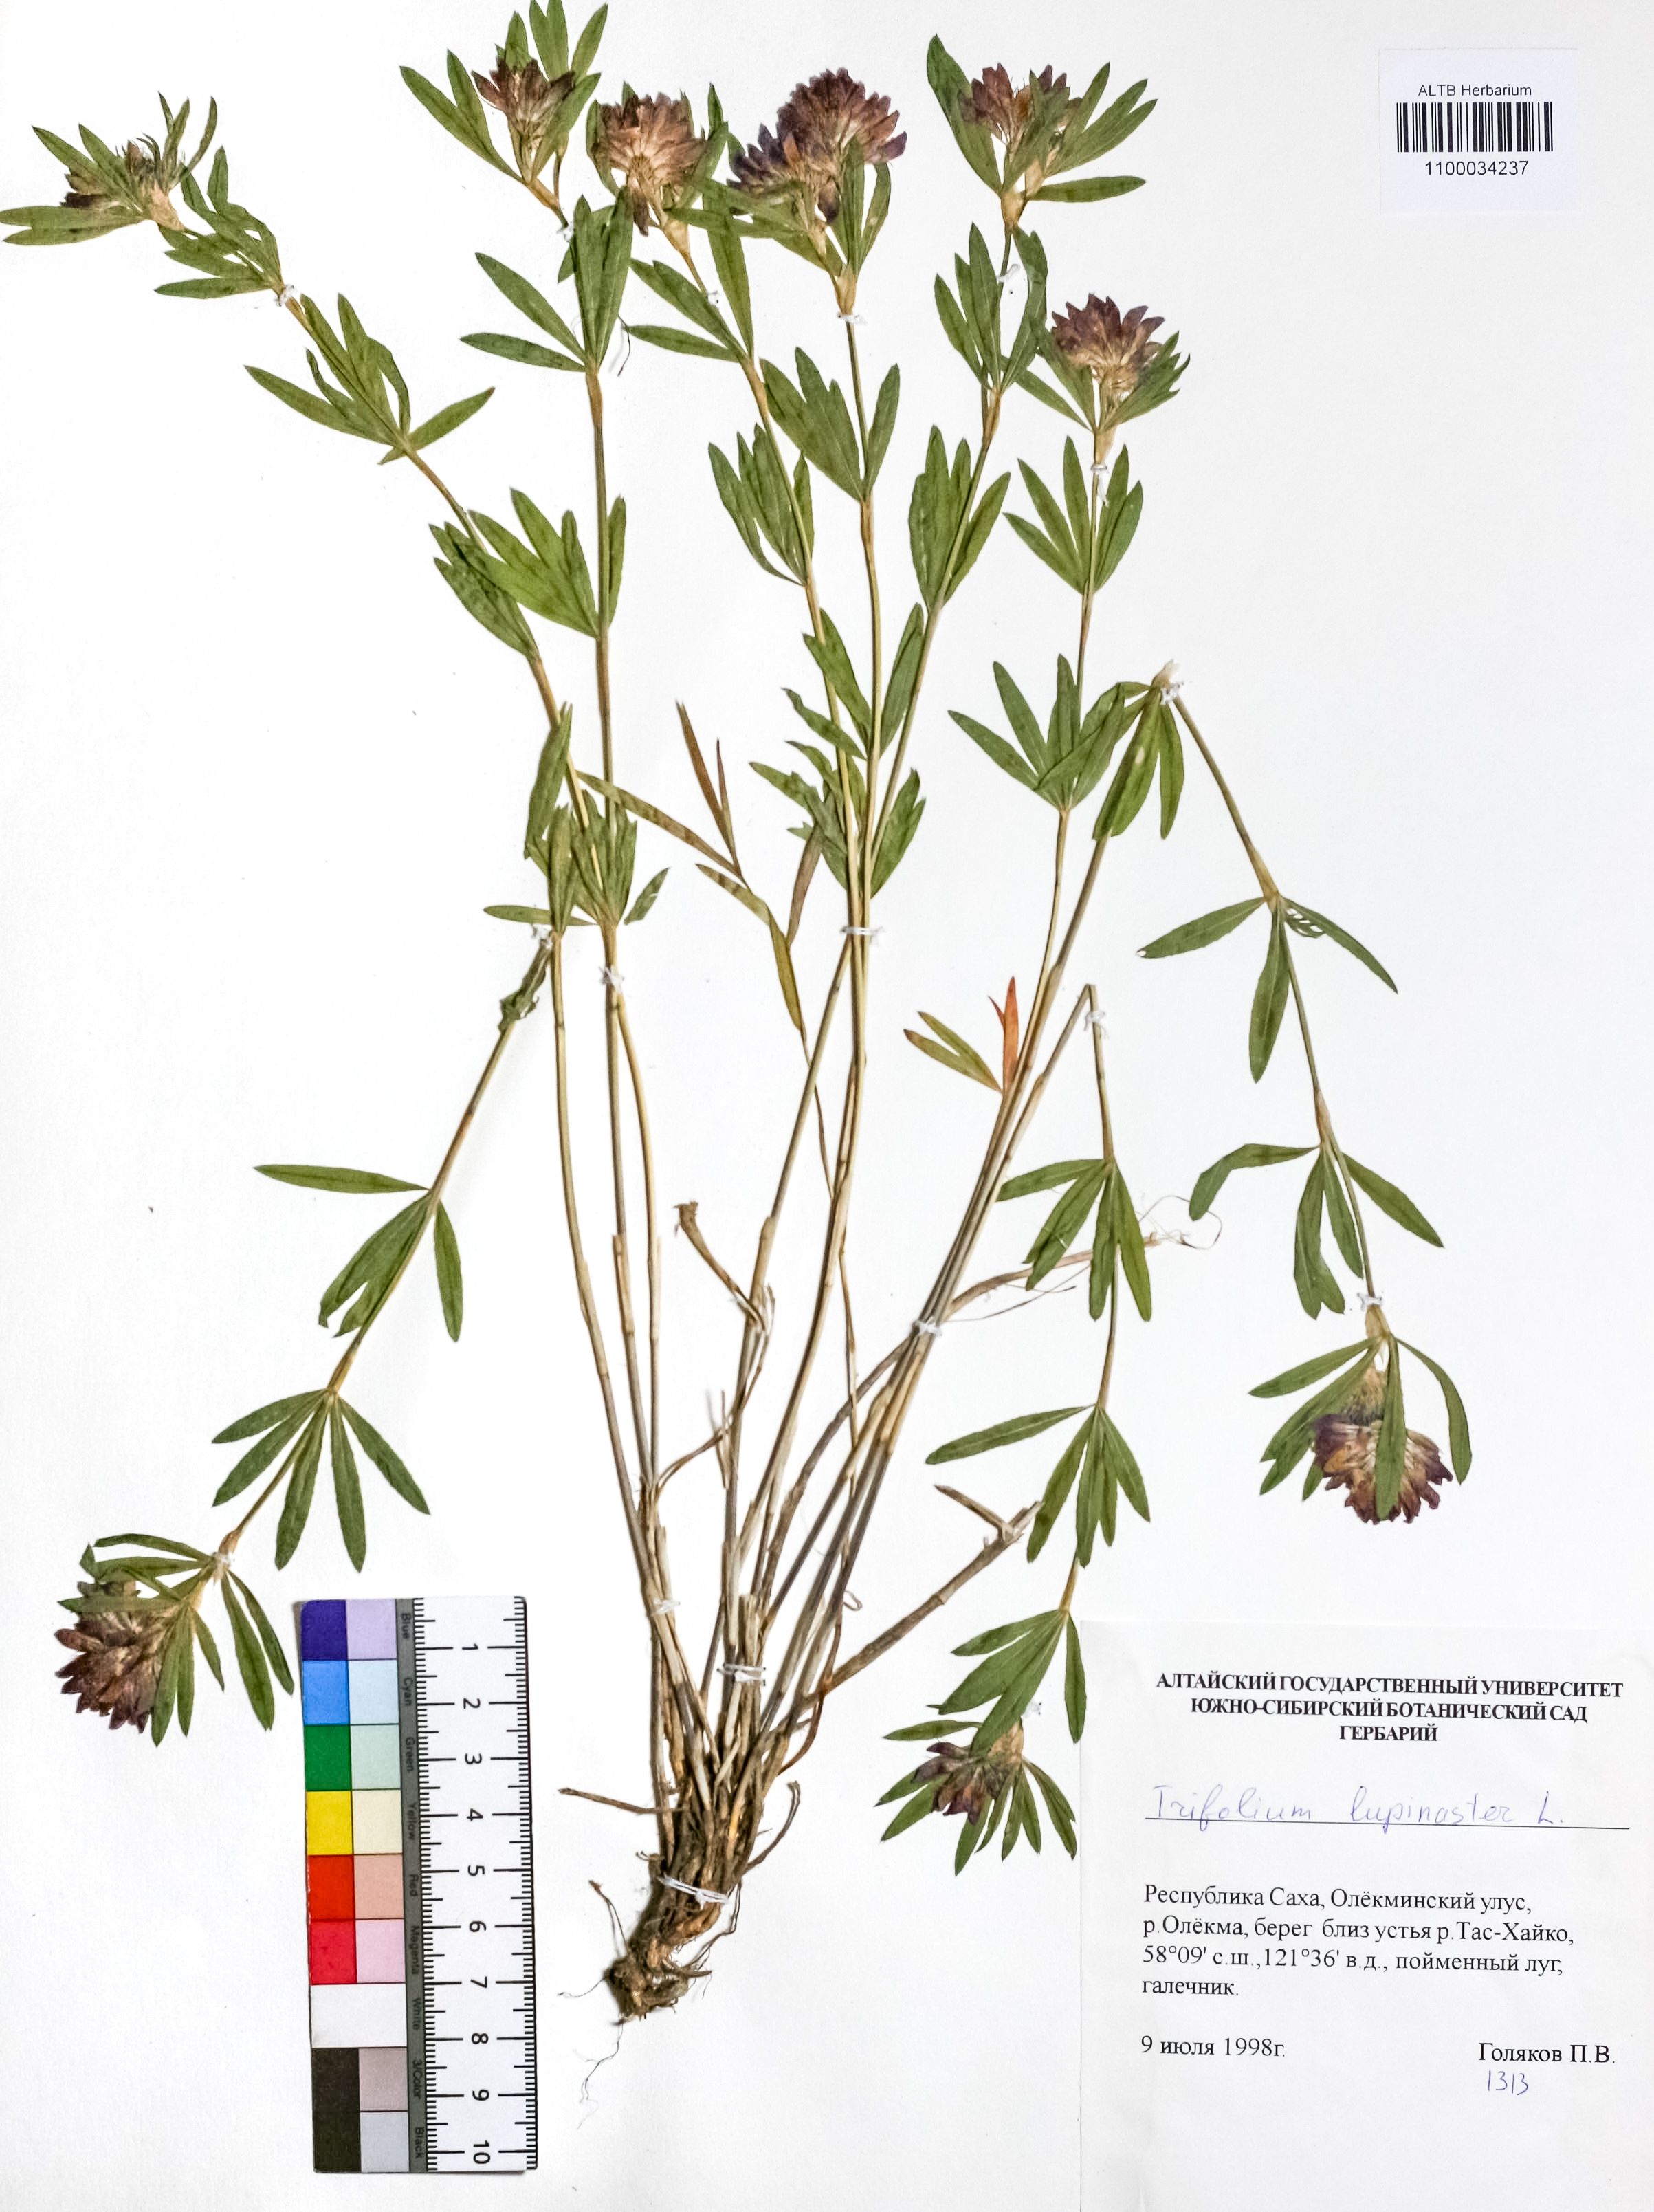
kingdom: Plantae
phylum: Tracheophyta
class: Magnoliopsida
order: Fabales
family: Fabaceae
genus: Trifolium
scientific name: Trifolium lupinaster
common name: Lupine clover
